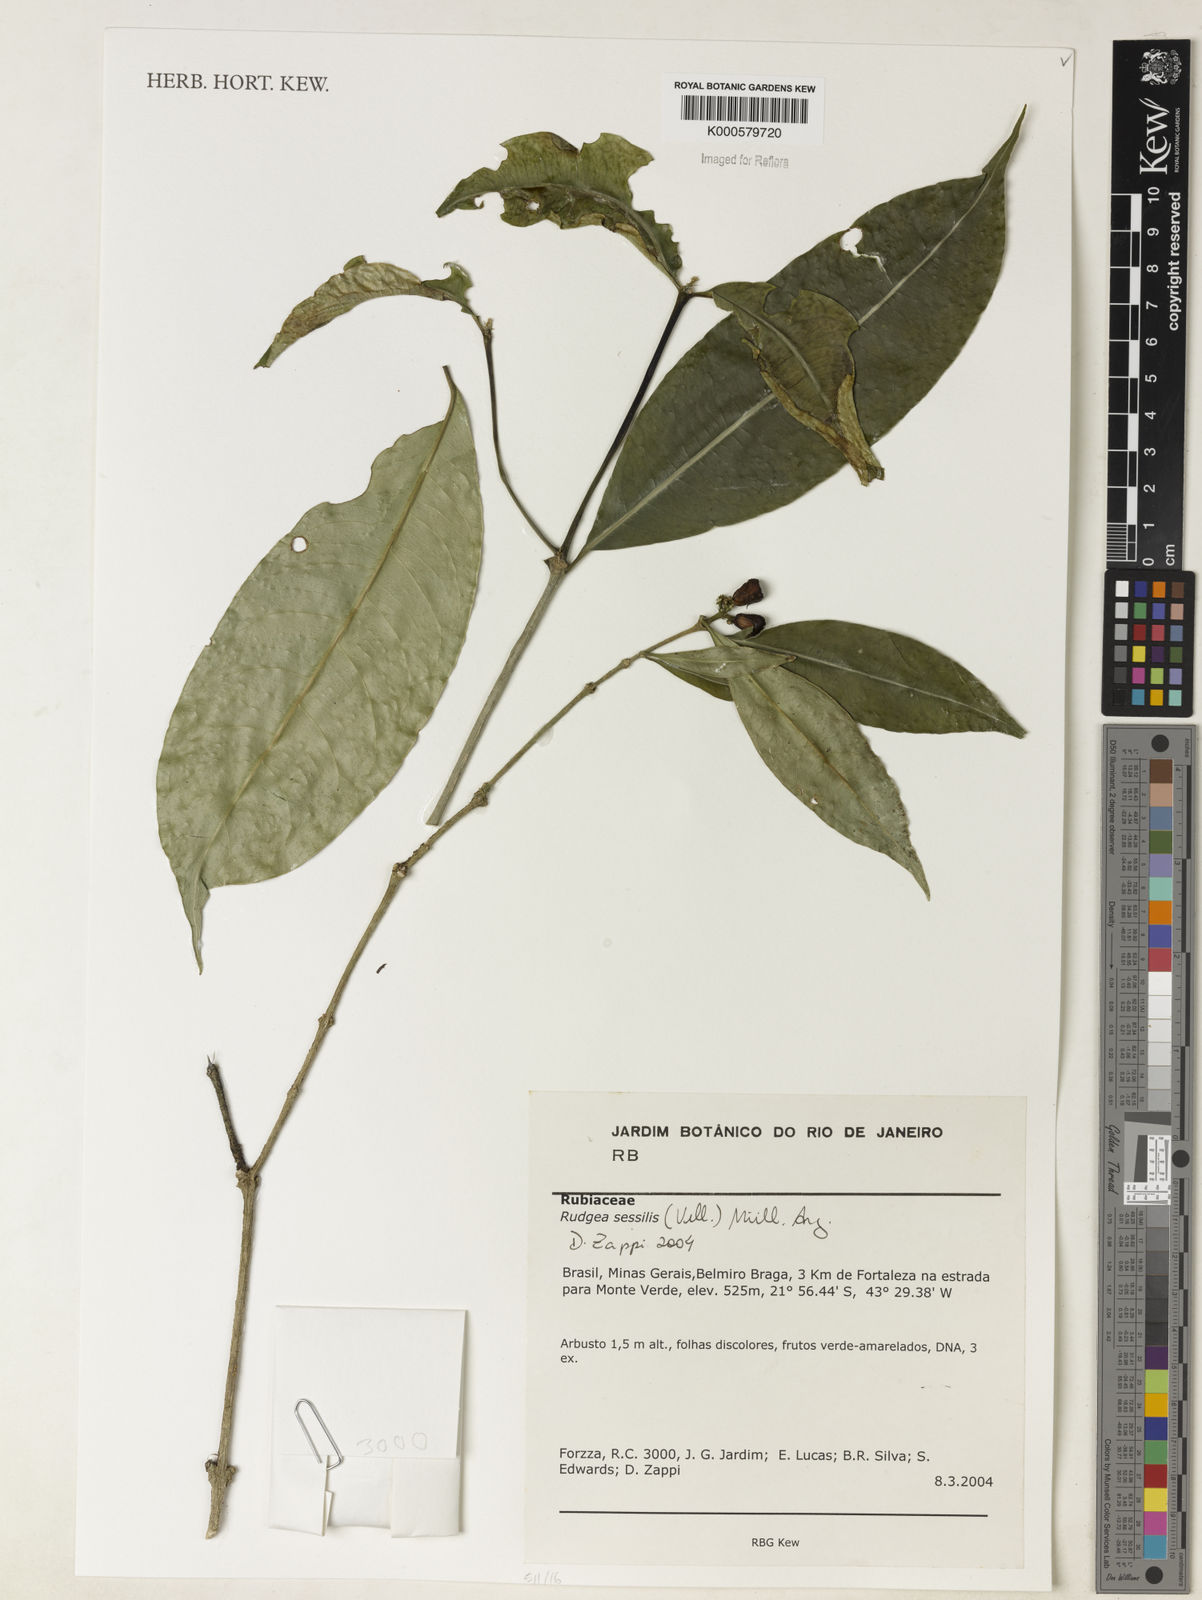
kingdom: Plantae
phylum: Tracheophyta
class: Magnoliopsida
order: Gentianales
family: Rubiaceae
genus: Rudgea
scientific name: Rudgea sessilis
